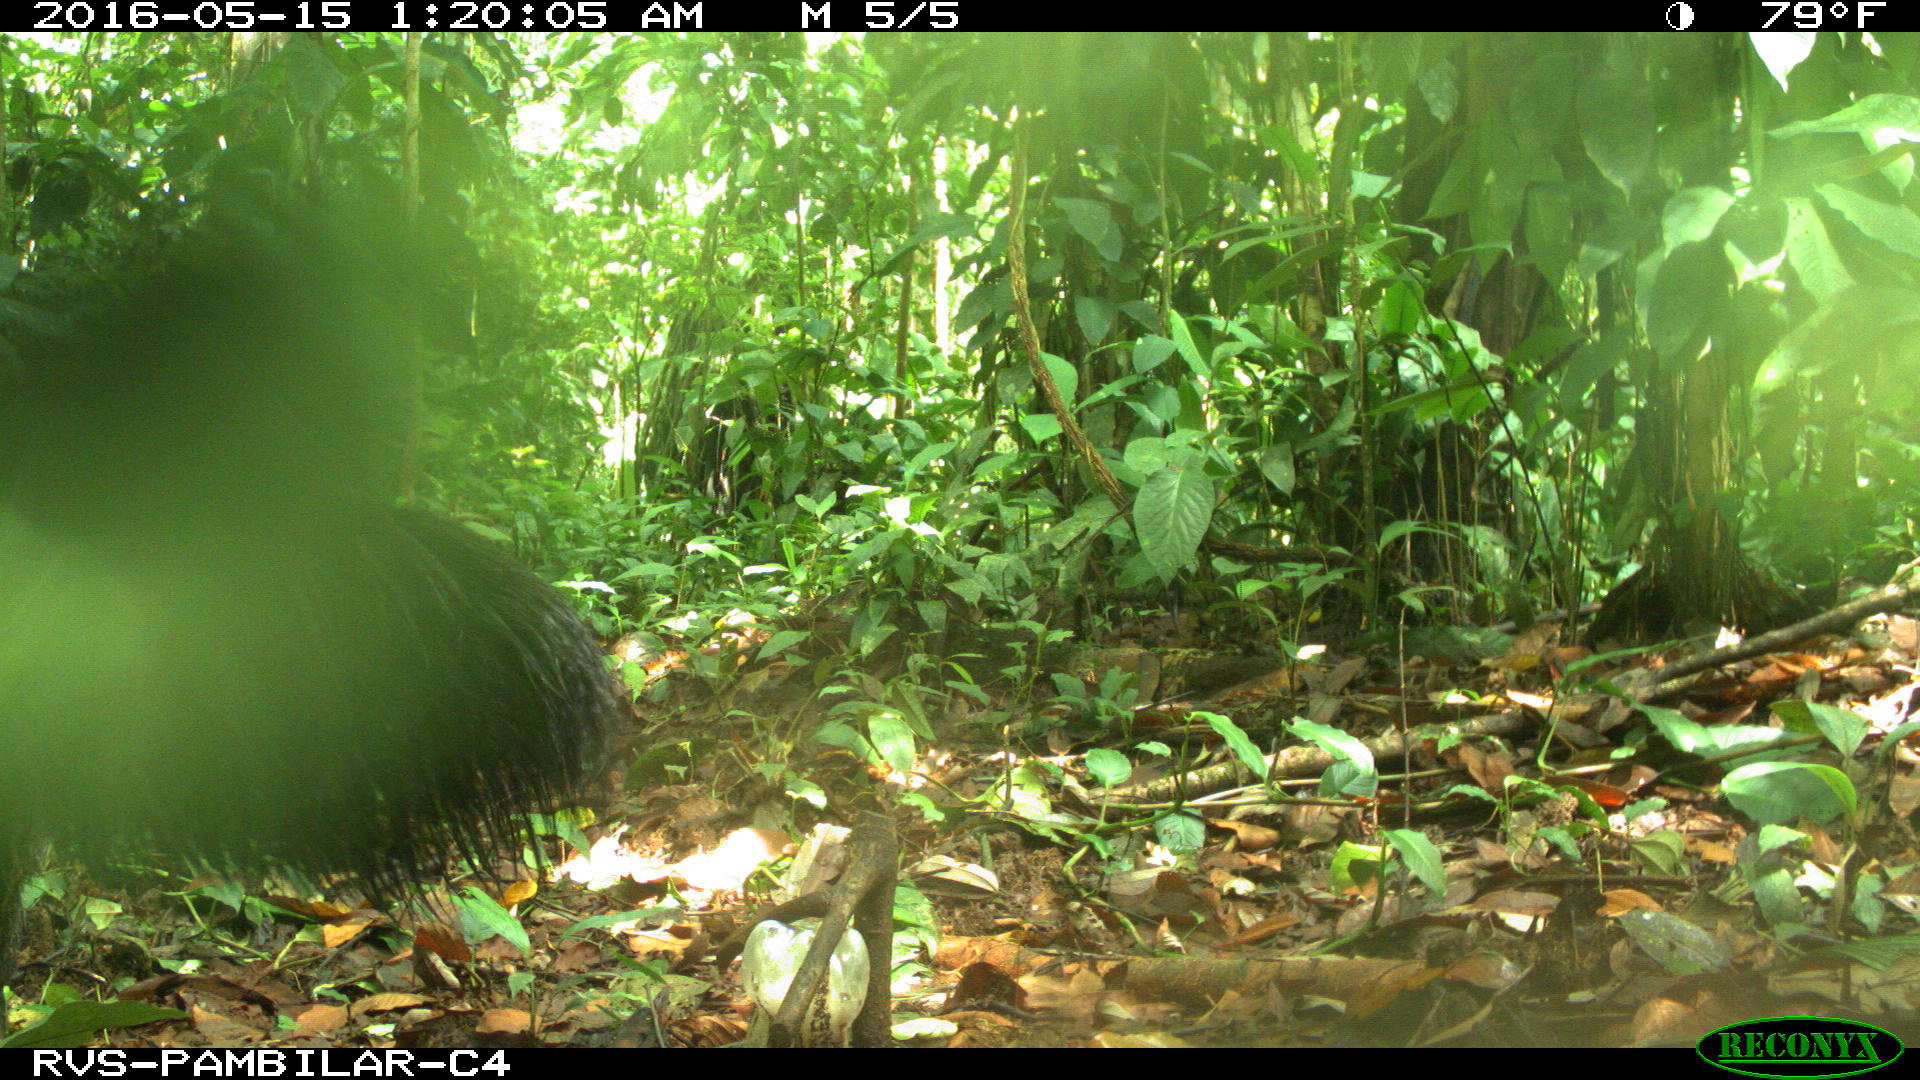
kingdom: Animalia
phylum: Chordata
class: Mammalia
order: Pilosa
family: Myrmecophagidae
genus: Myrmecophaga
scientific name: Myrmecophaga tridactyla
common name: Giant anteater
